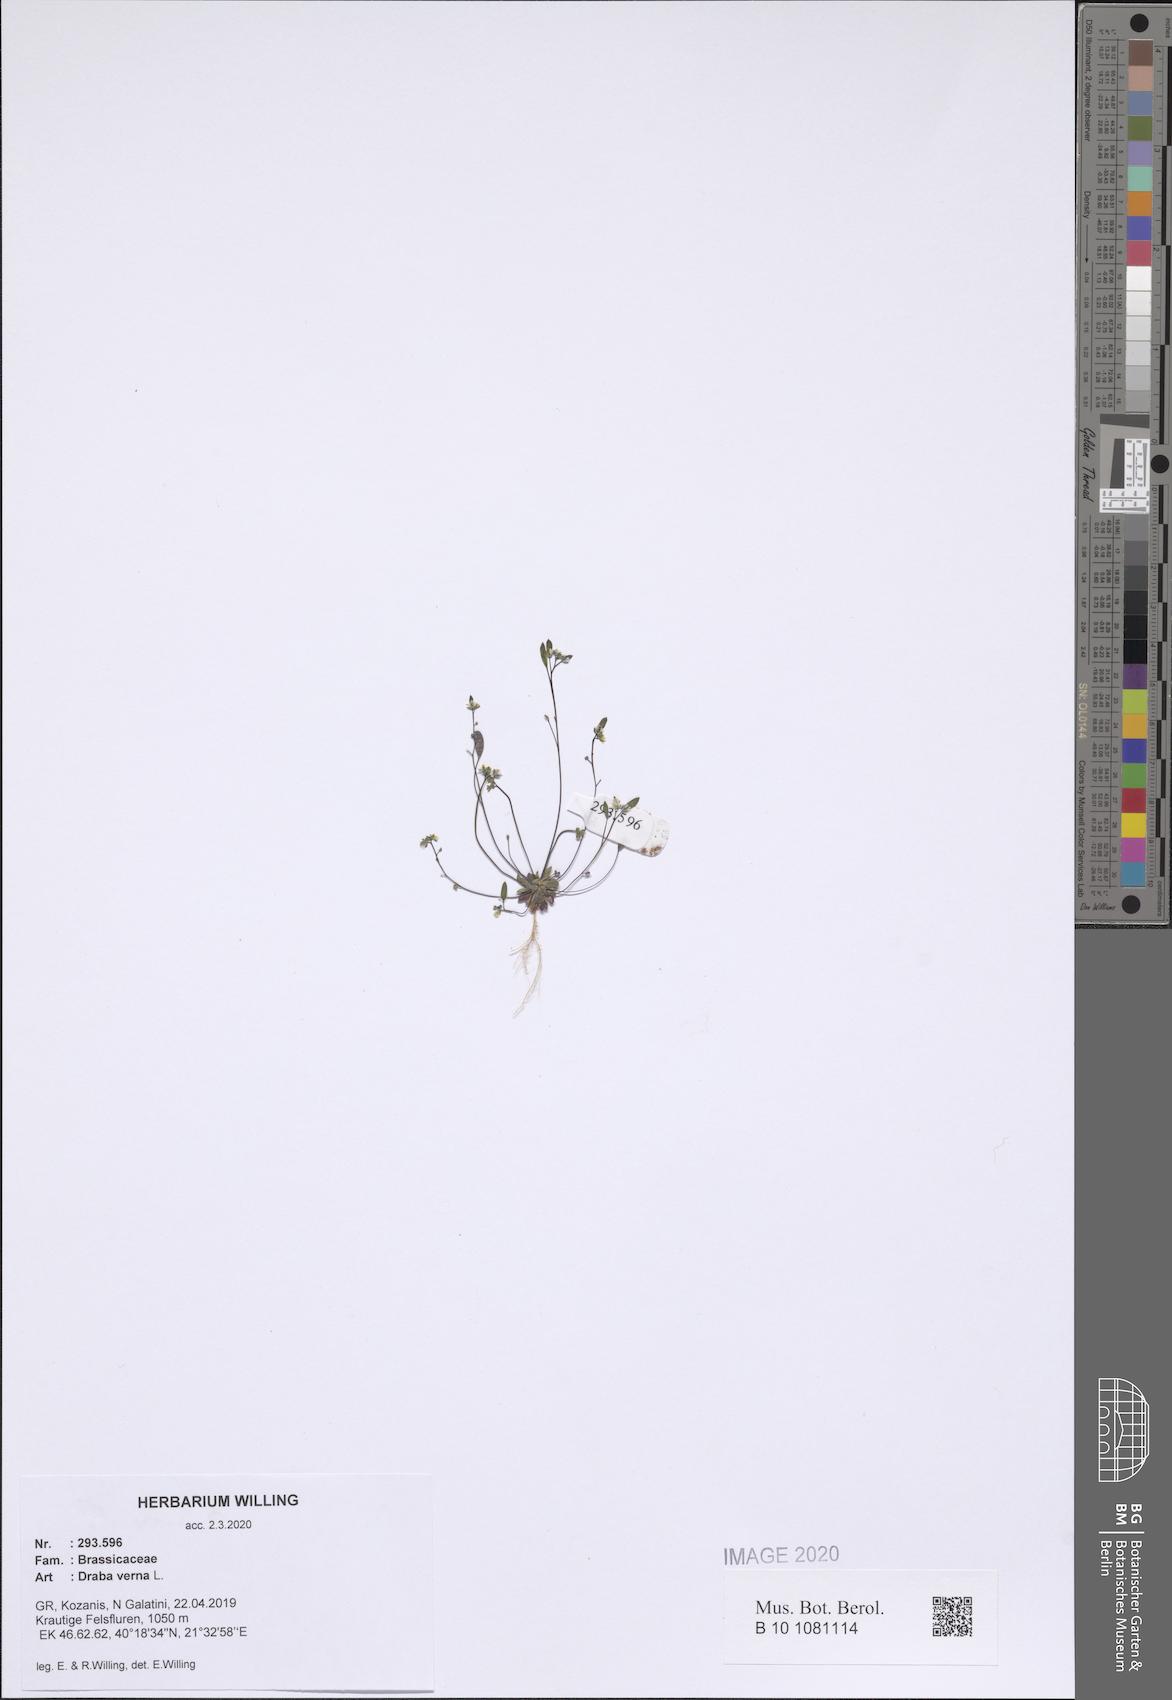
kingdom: Plantae
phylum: Tracheophyta
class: Magnoliopsida
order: Brassicales
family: Brassicaceae
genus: Draba
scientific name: Draba verna
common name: Spring draba
